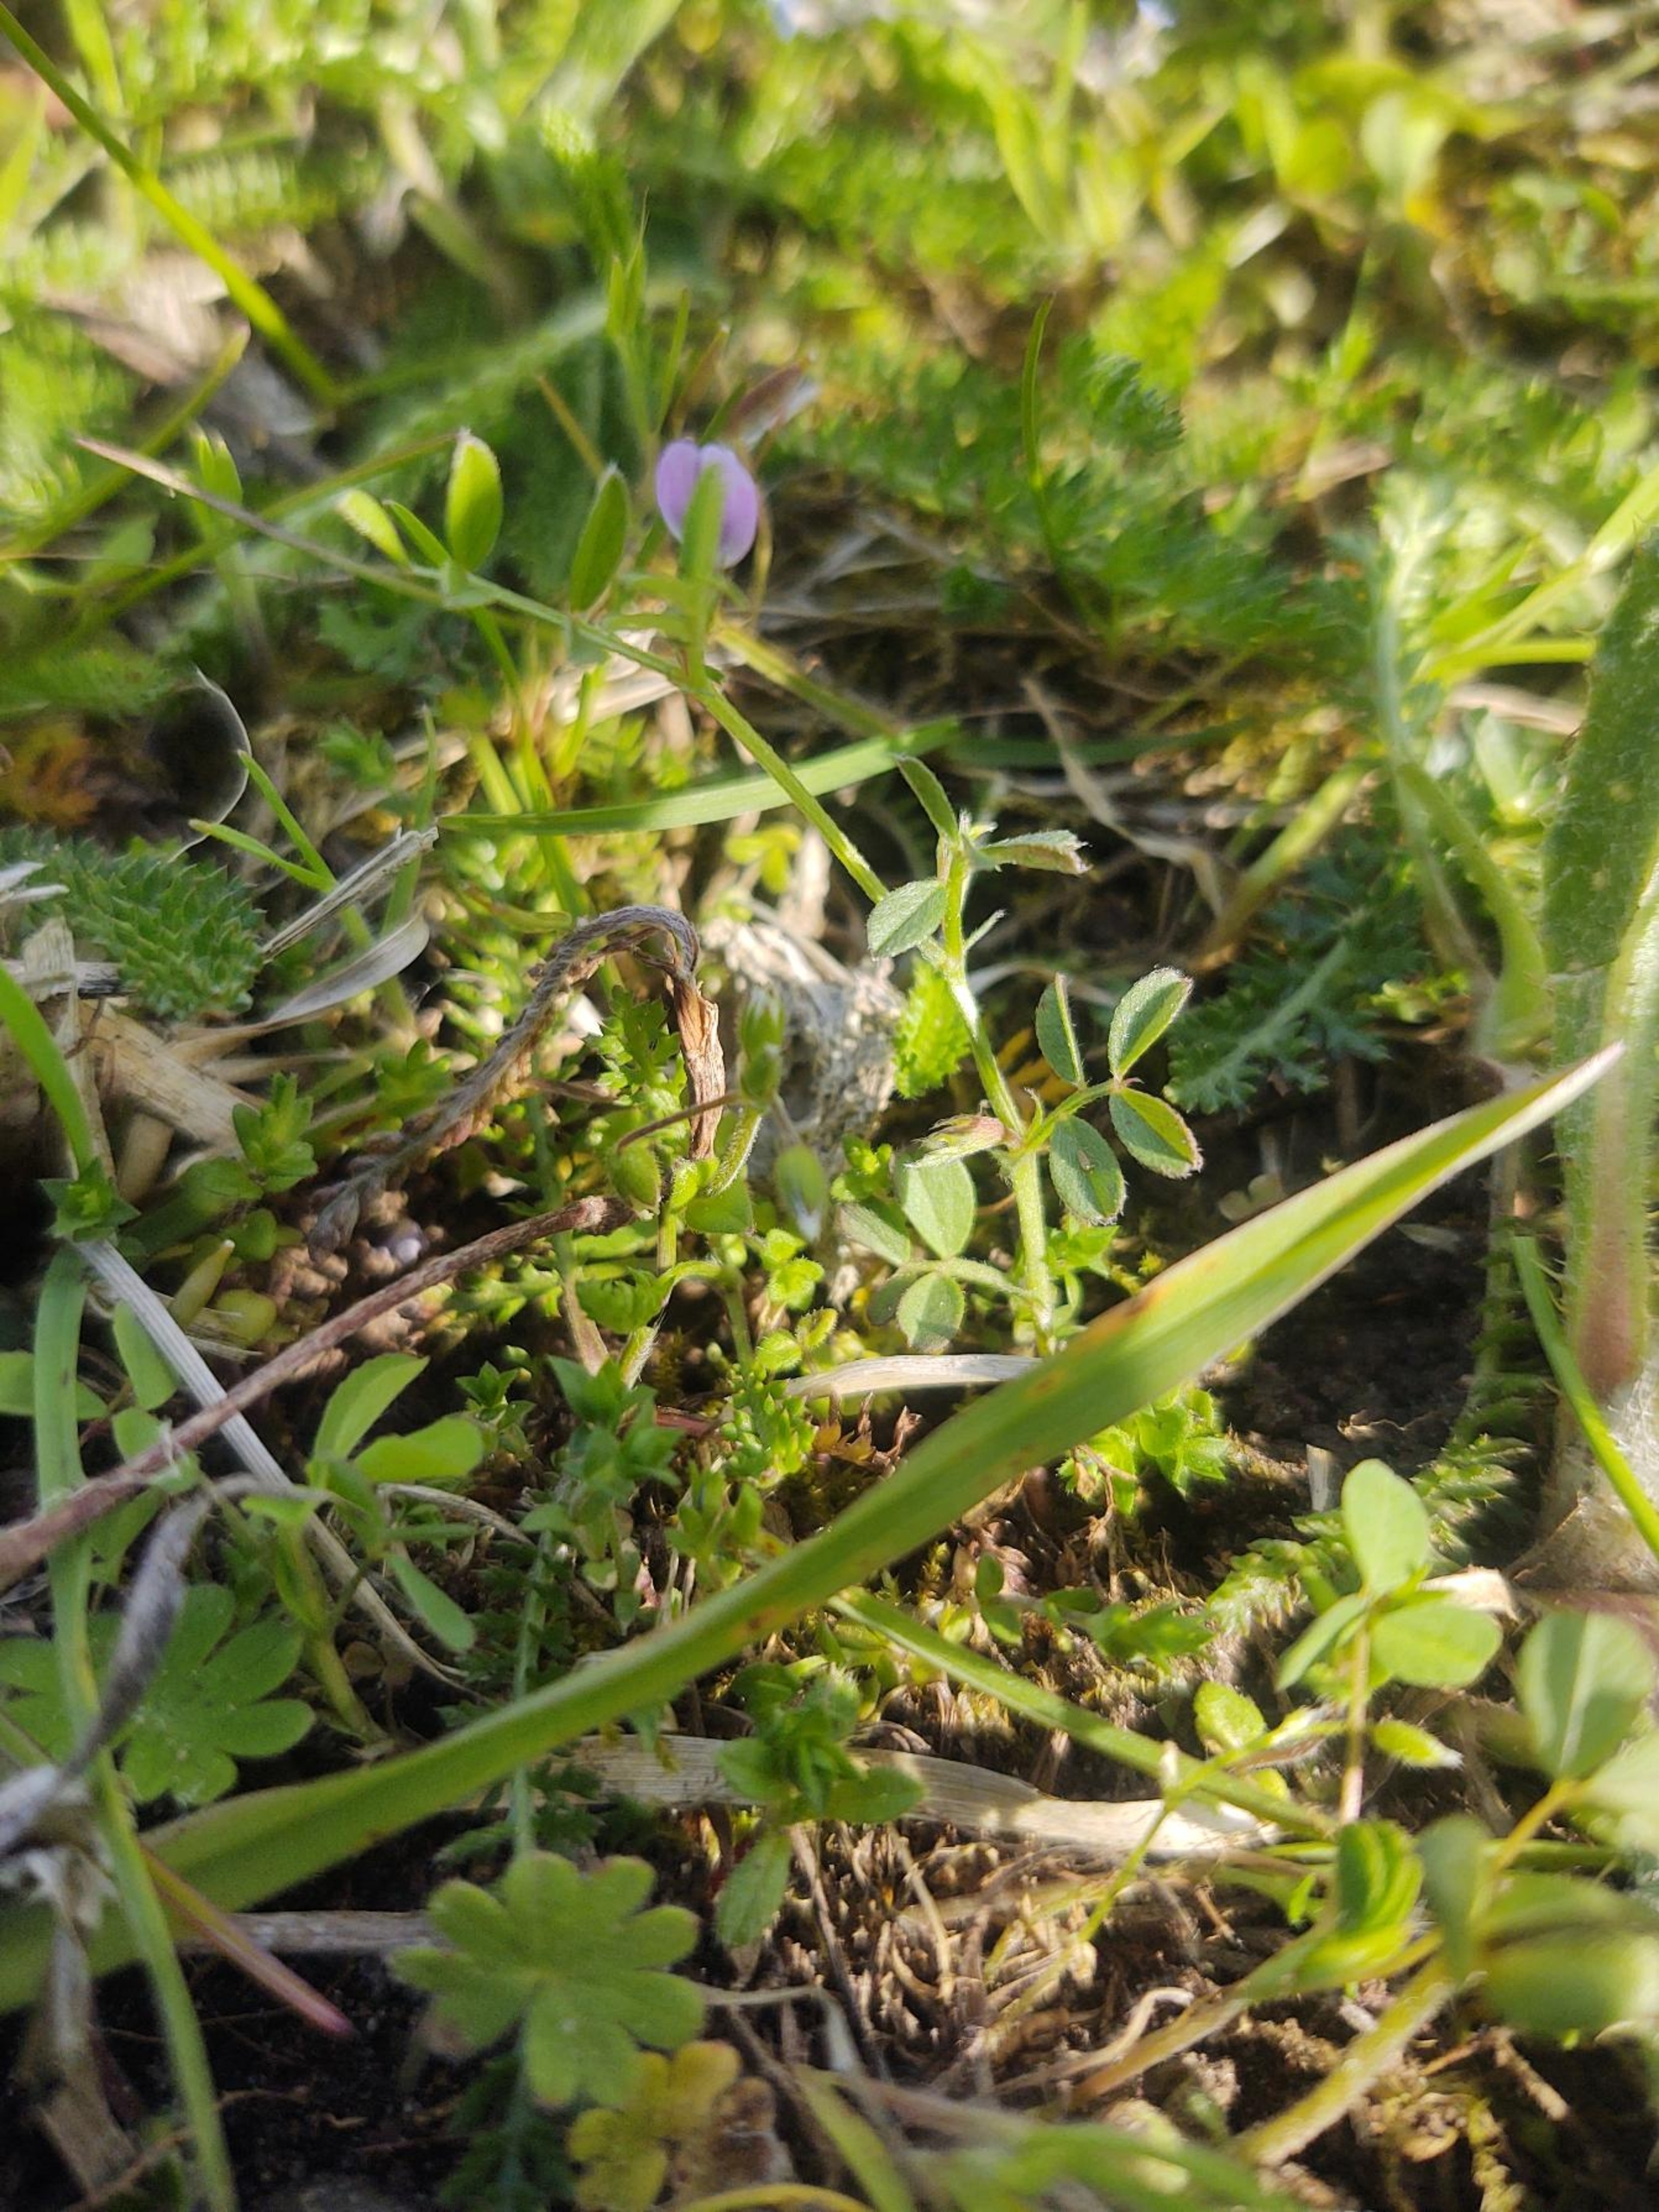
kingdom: Plantae
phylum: Tracheophyta
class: Magnoliopsida
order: Fabales
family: Fabaceae
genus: Vicia
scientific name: Vicia lathyroides
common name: Vår-vikke
